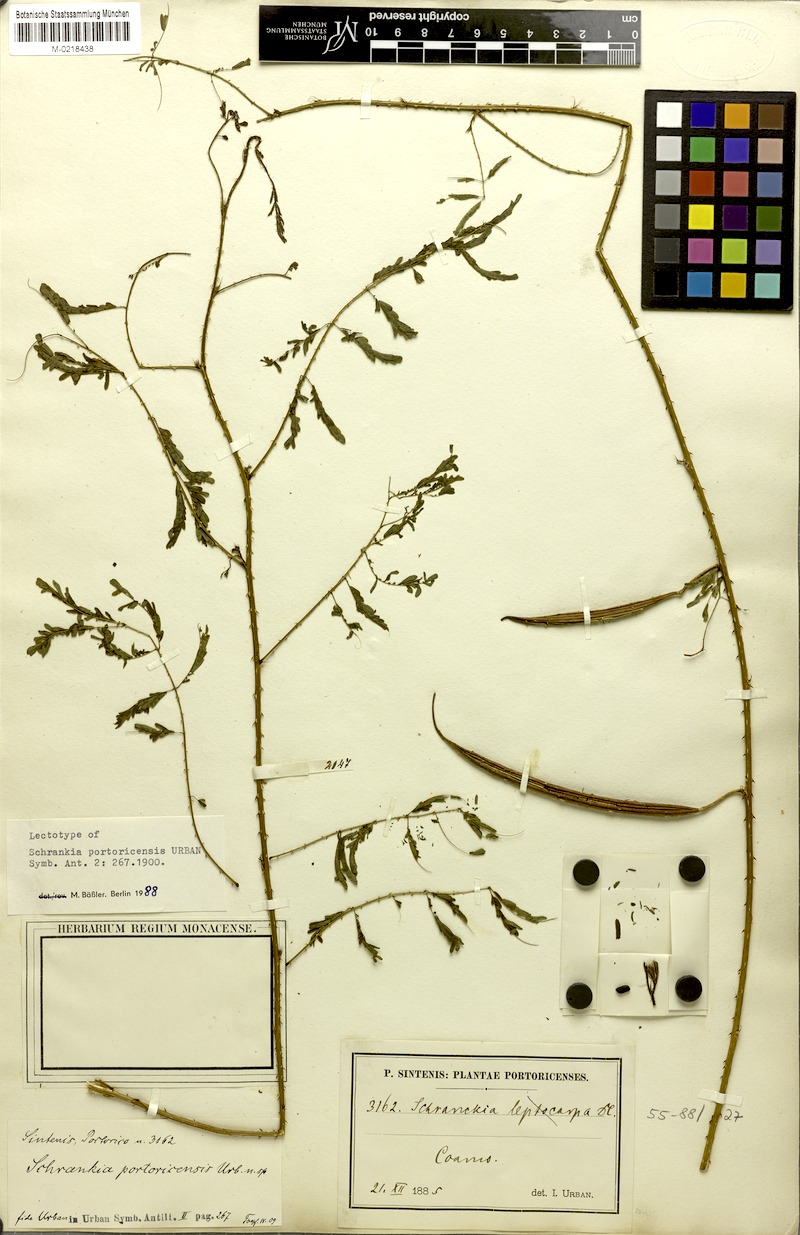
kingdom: Plantae
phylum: Tracheophyta
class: Magnoliopsida
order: Fabales
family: Fabaceae
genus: Mimosa
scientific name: Mimosa quadrivalvis
